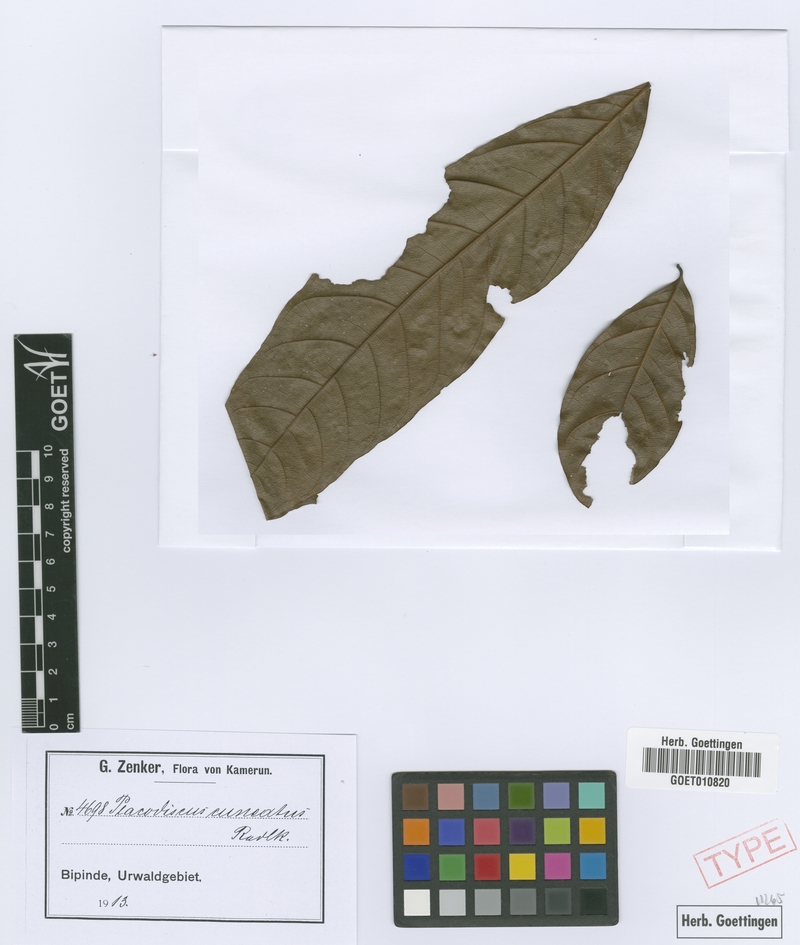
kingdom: Plantae
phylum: Tracheophyta
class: Magnoliopsida
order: Sapindales
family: Sapindaceae
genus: Placodiscus
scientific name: Placodiscus angustifolius
